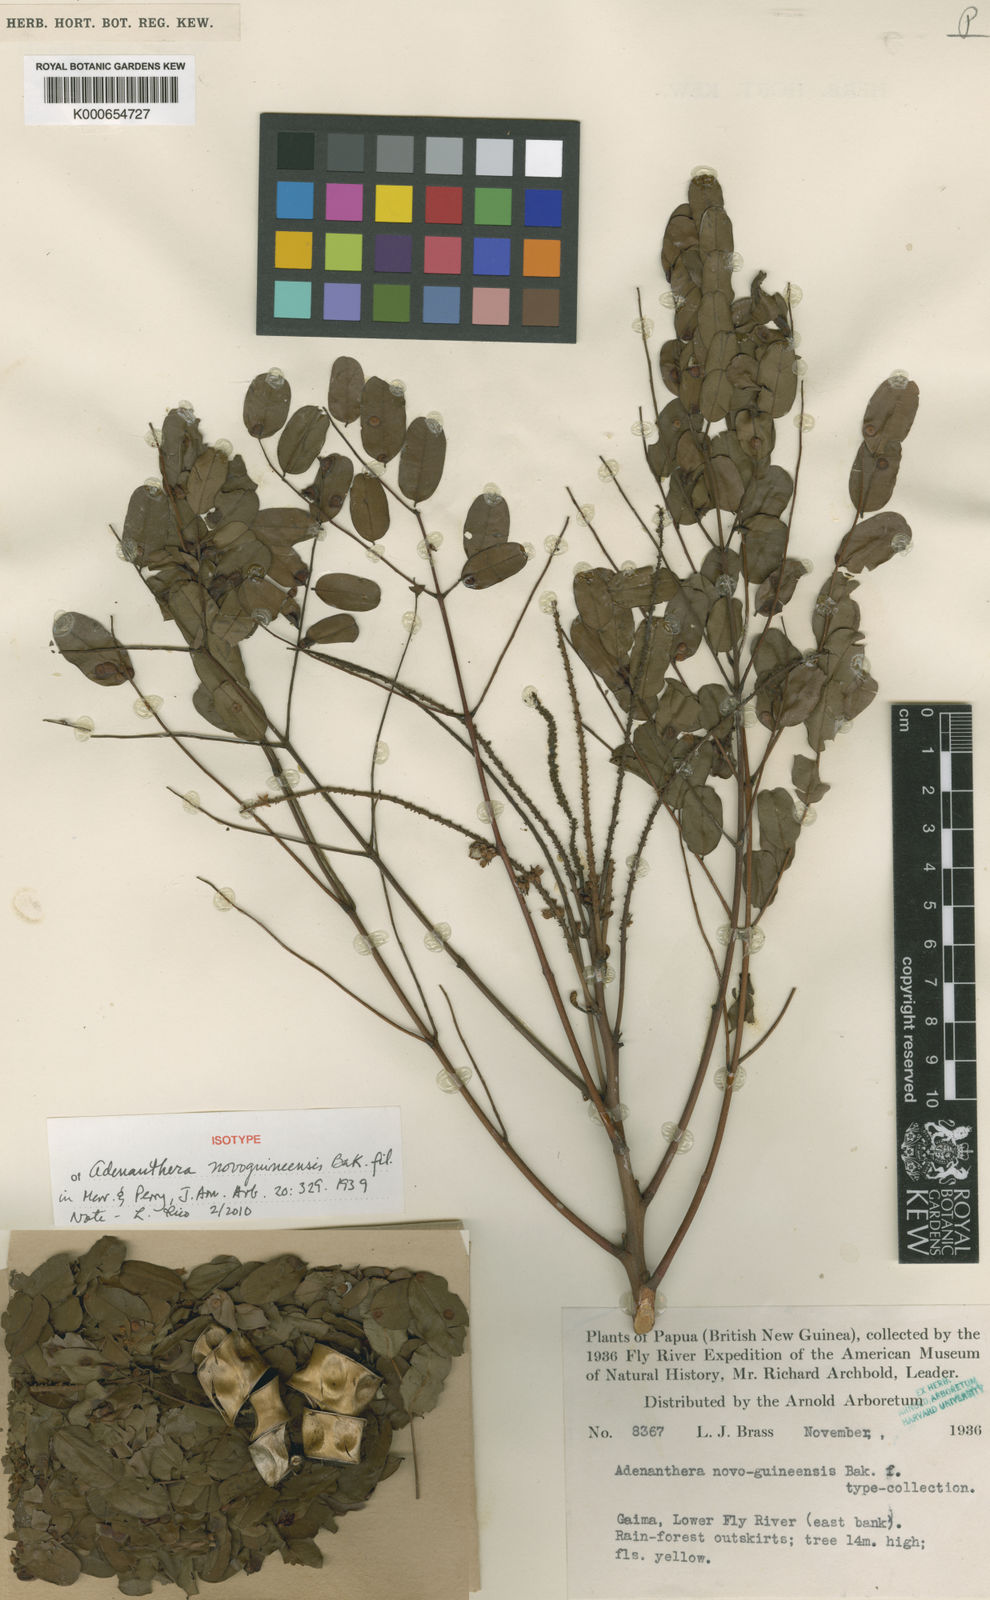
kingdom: Plantae
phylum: Tracheophyta
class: Magnoliopsida
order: Fabales
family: Fabaceae
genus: Adenanthera
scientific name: Adenanthera novoguineensis
